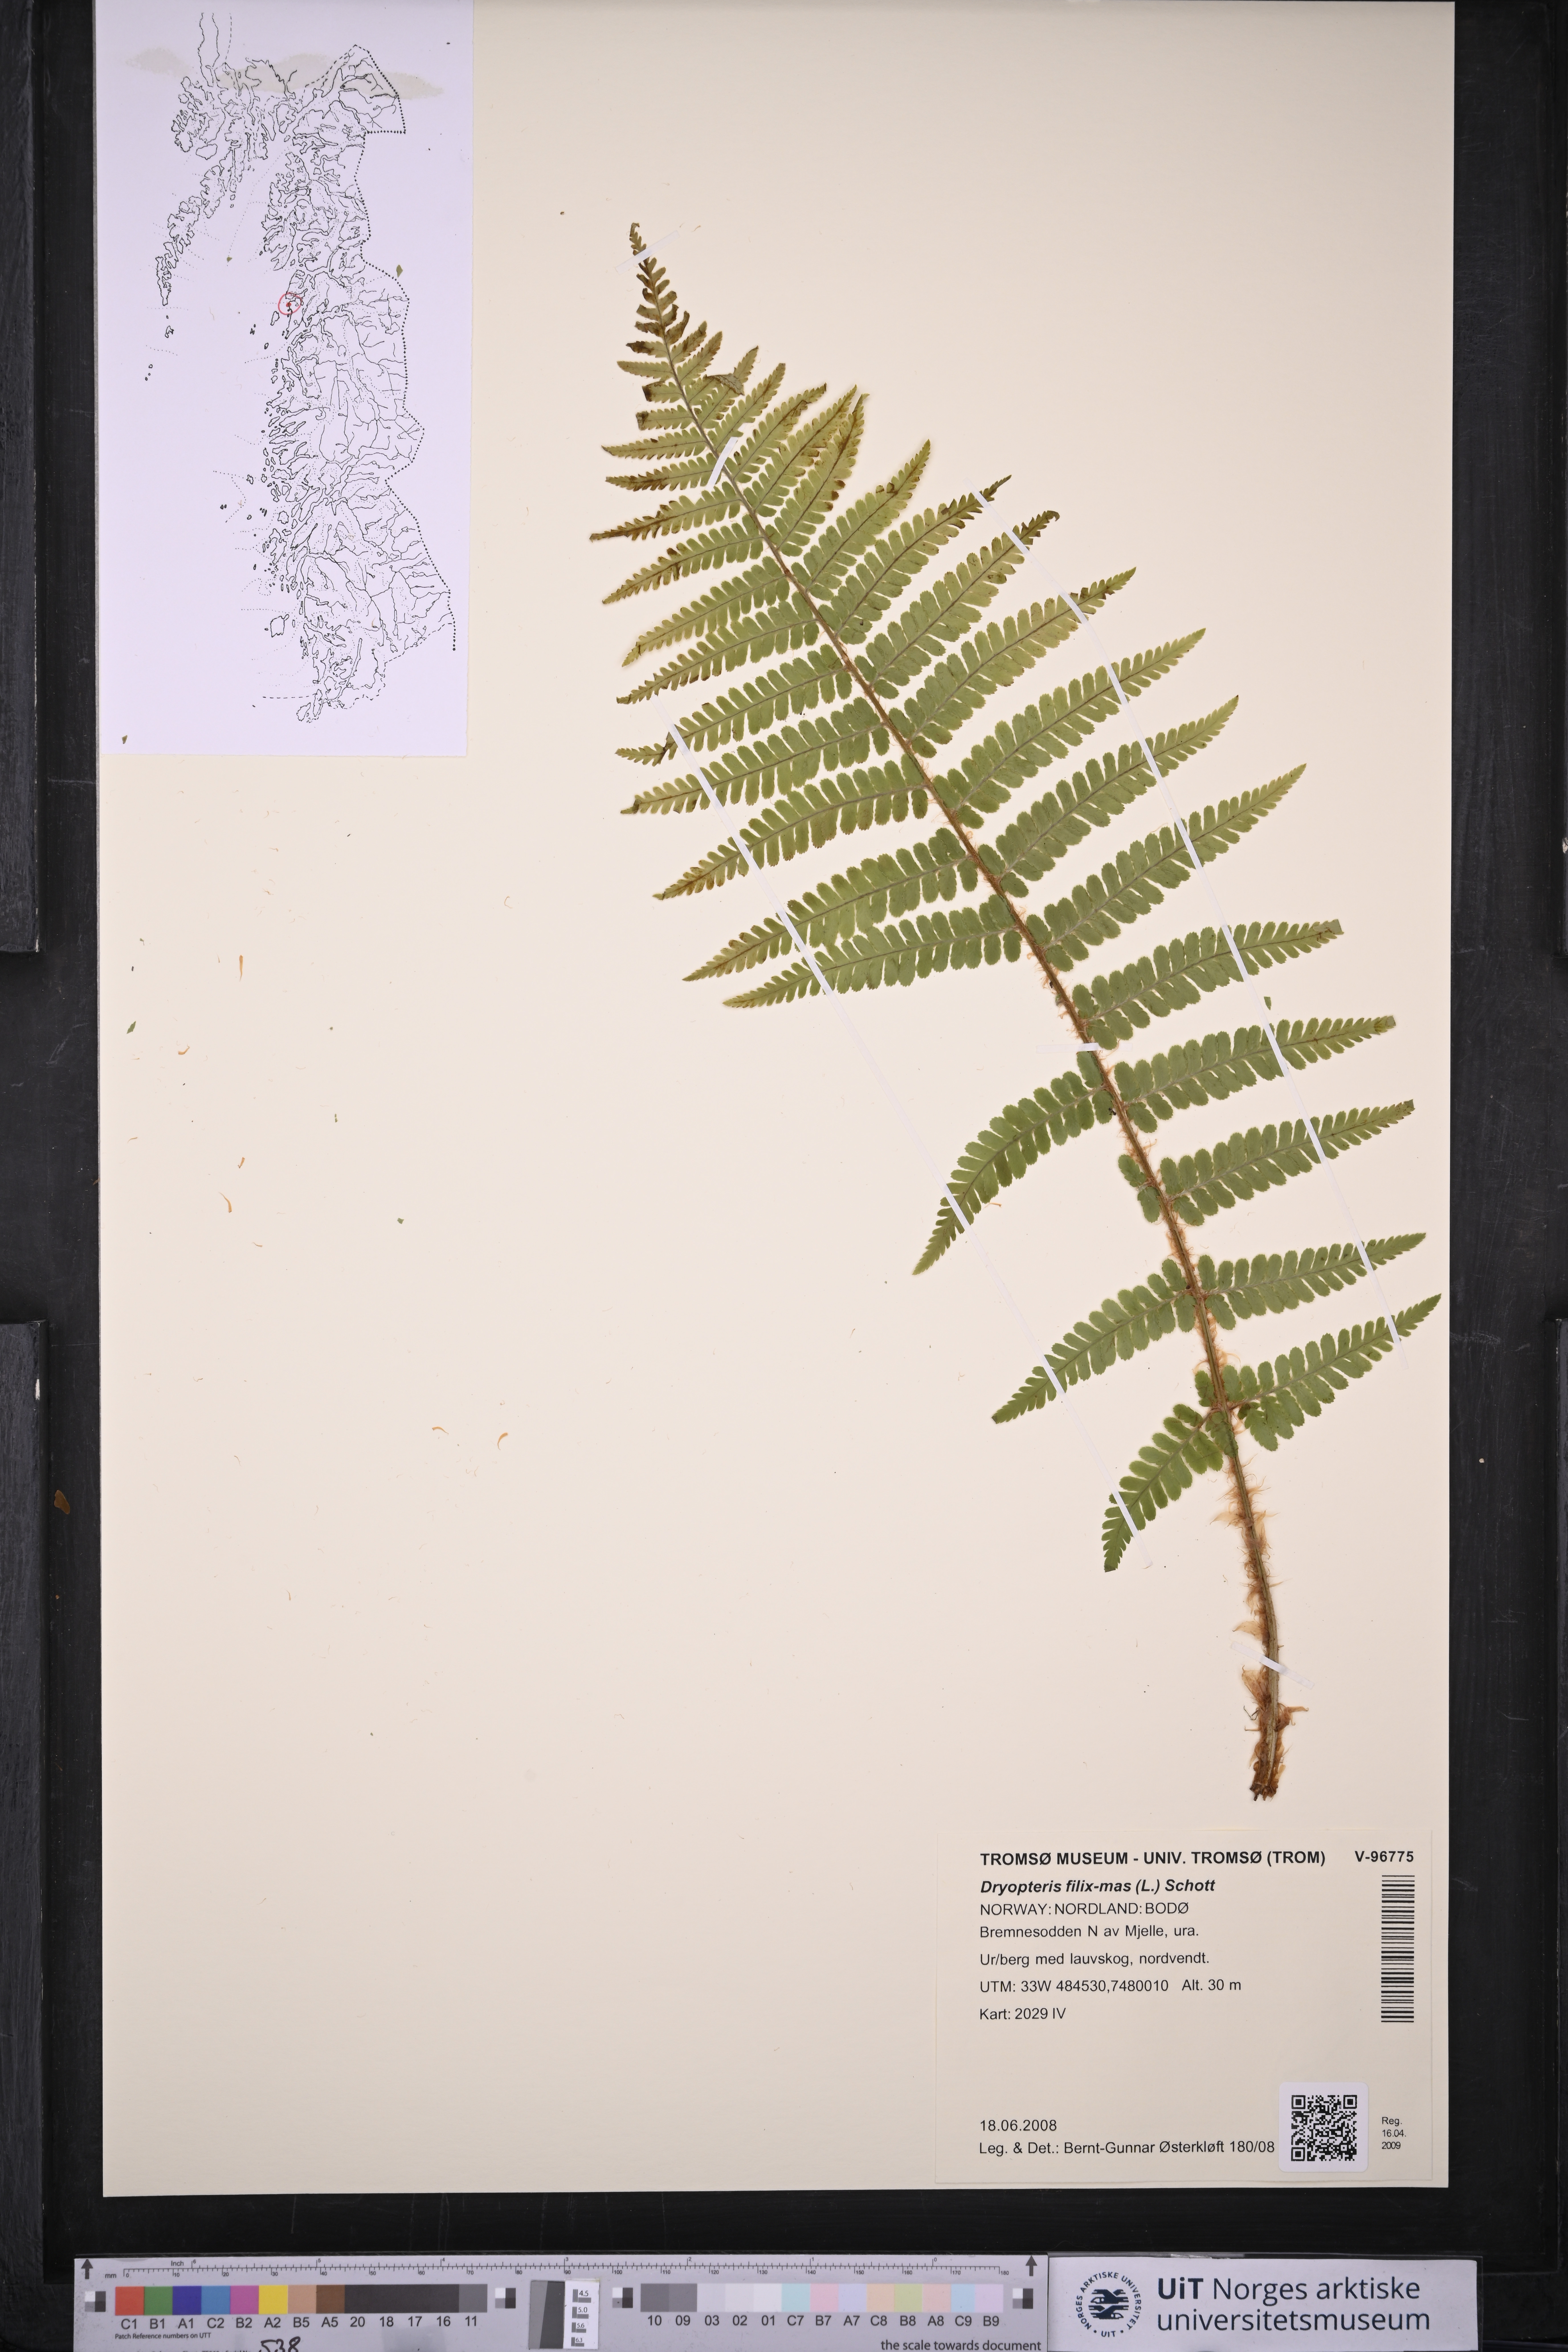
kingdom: Plantae
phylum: Tracheophyta
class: Polypodiopsida
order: Polypodiales
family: Dryopteridaceae
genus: Dryopteris
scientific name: Dryopteris filix-mas
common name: Male fern
